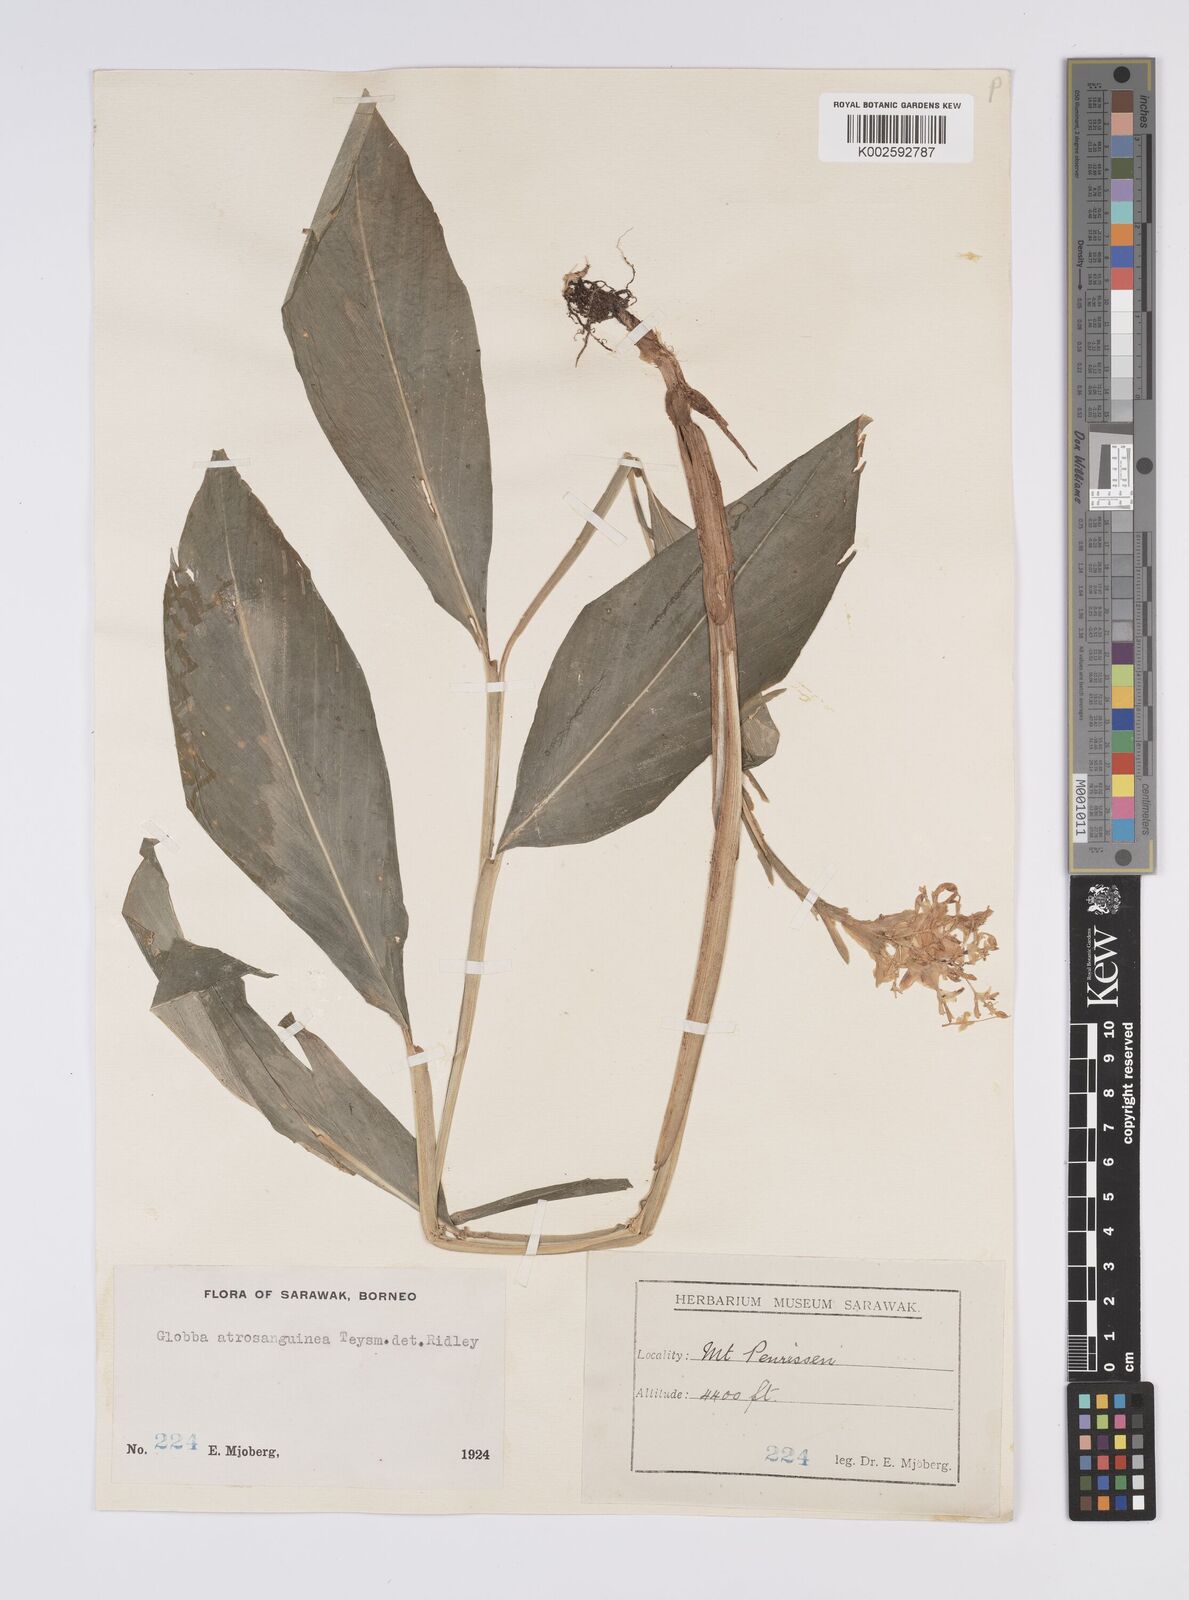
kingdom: Plantae
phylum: Tracheophyta
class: Liliopsida
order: Zingiberales
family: Zingiberaceae
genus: Globba
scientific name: Globba atrosanguinea
